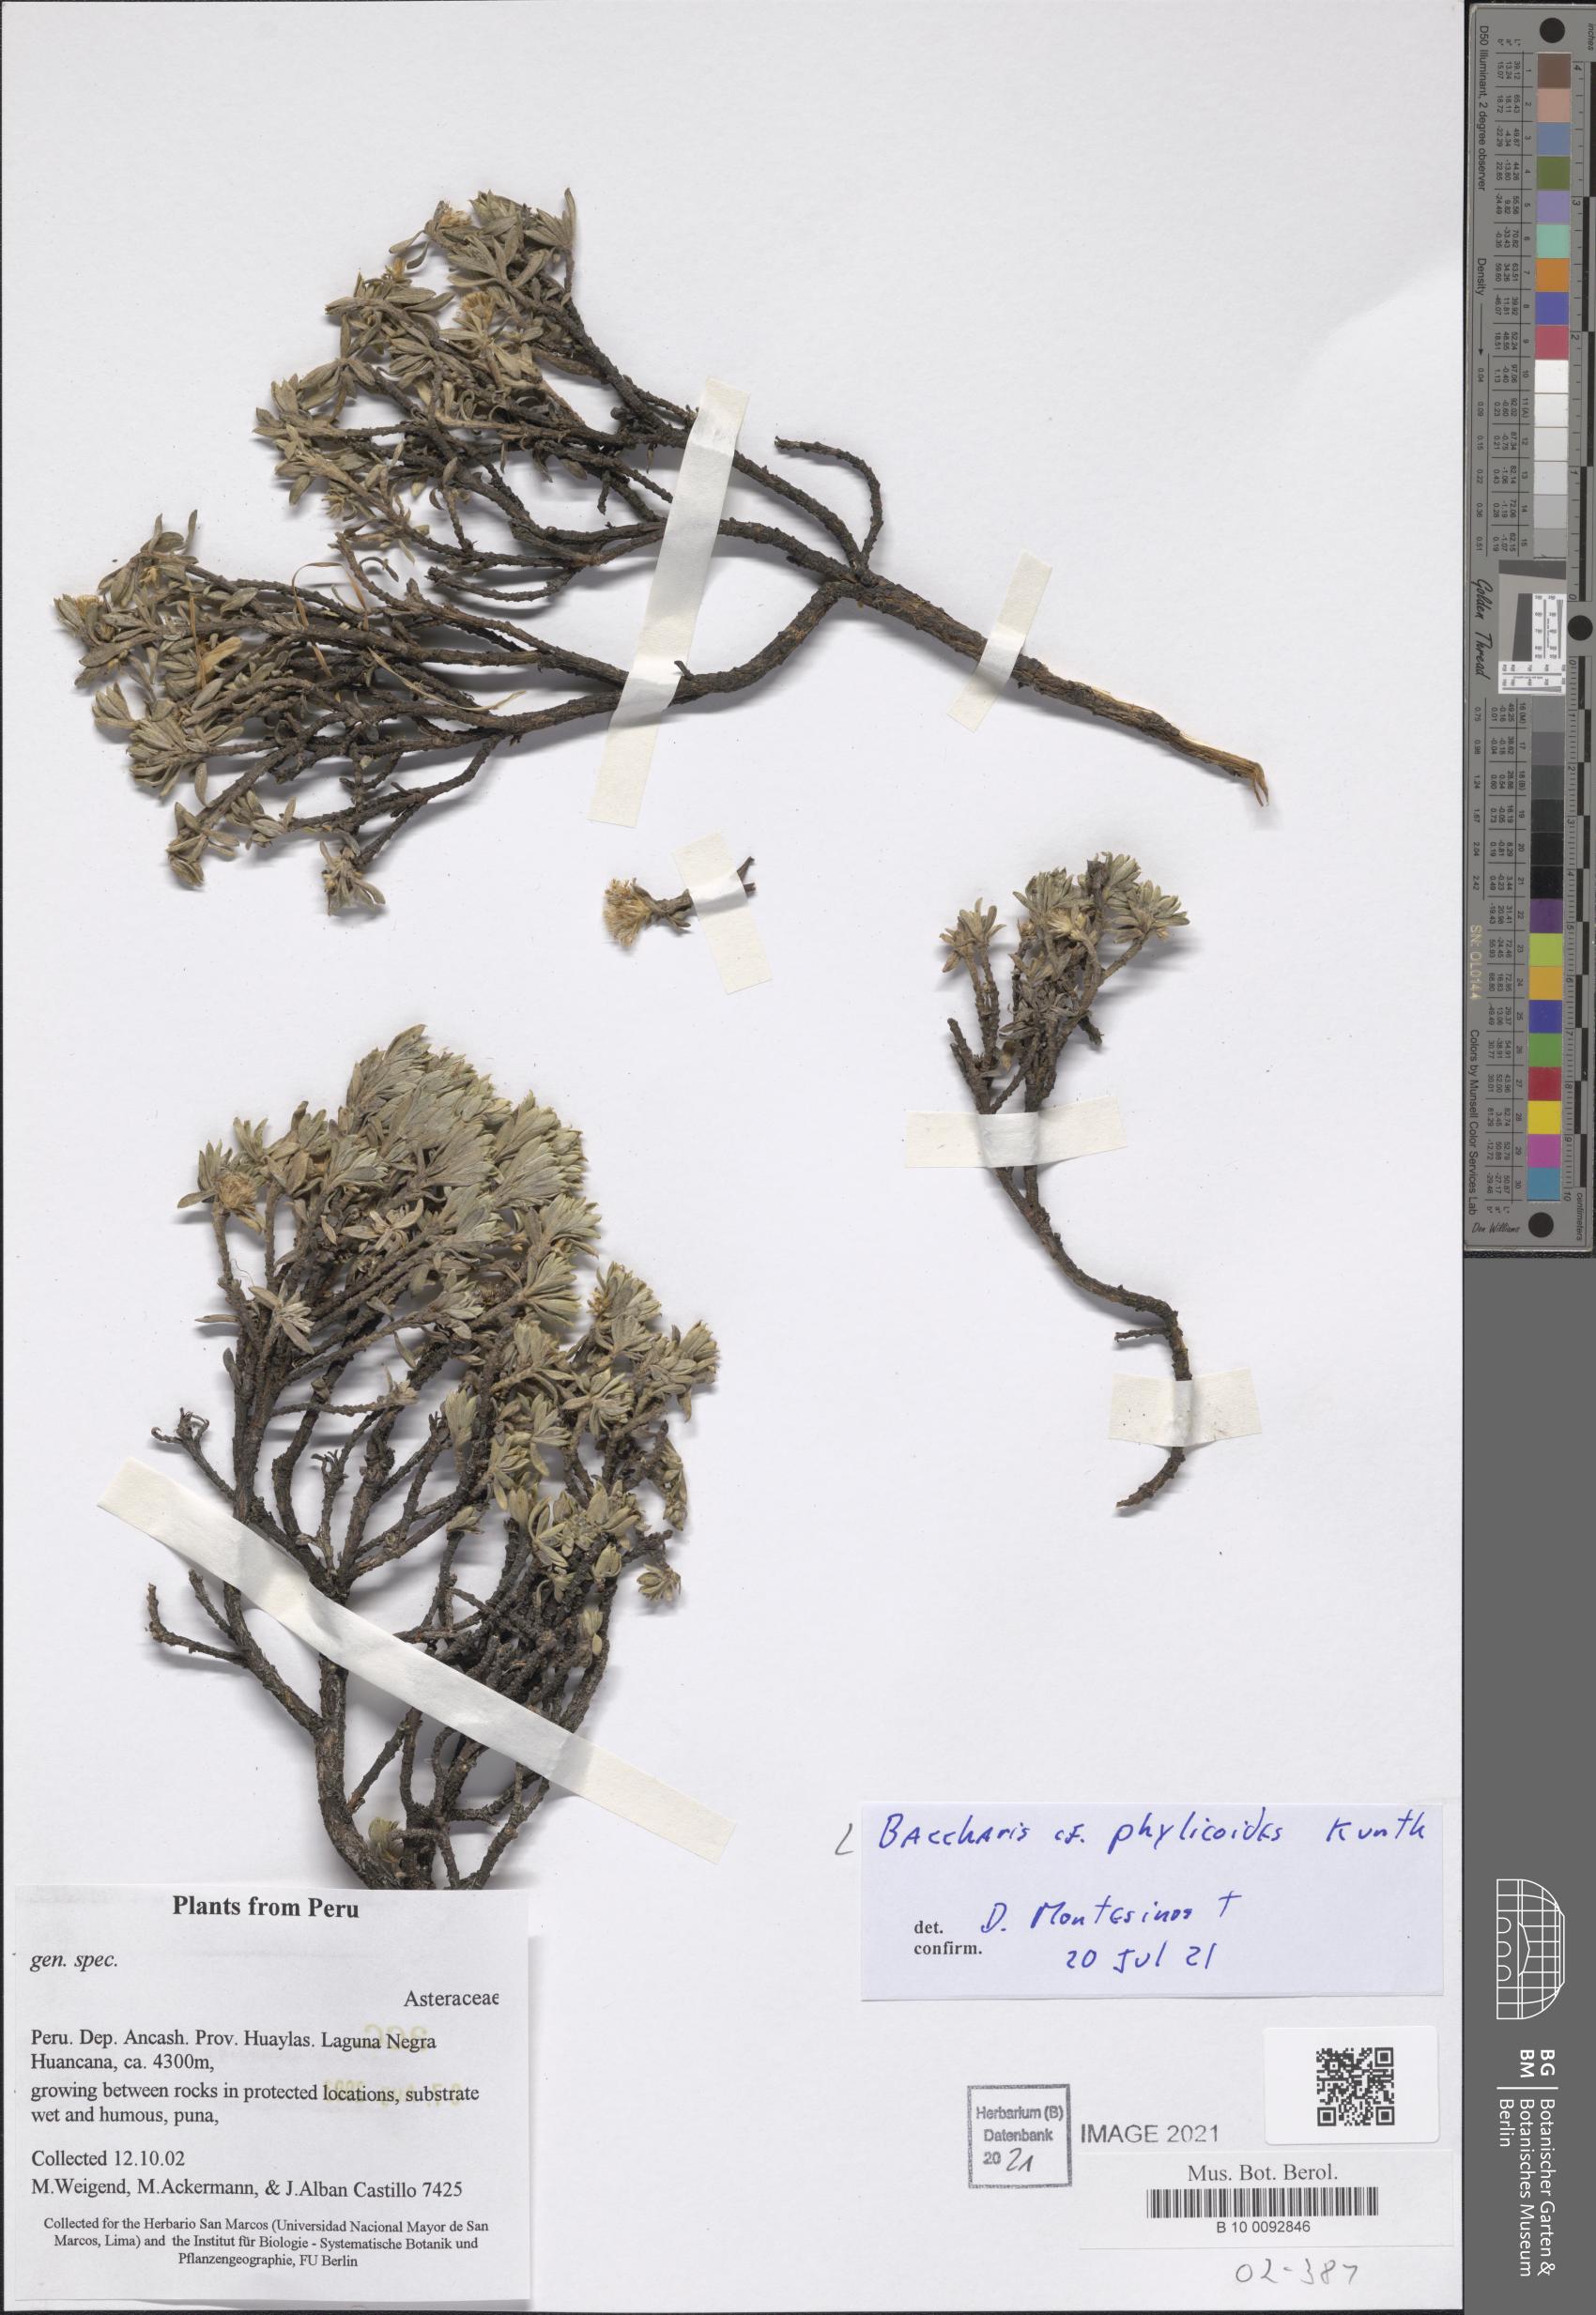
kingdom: Plantae
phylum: Tracheophyta
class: Magnoliopsida
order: Asterales
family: Asteraceae
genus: Baccharis
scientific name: Baccharis phylicoides
